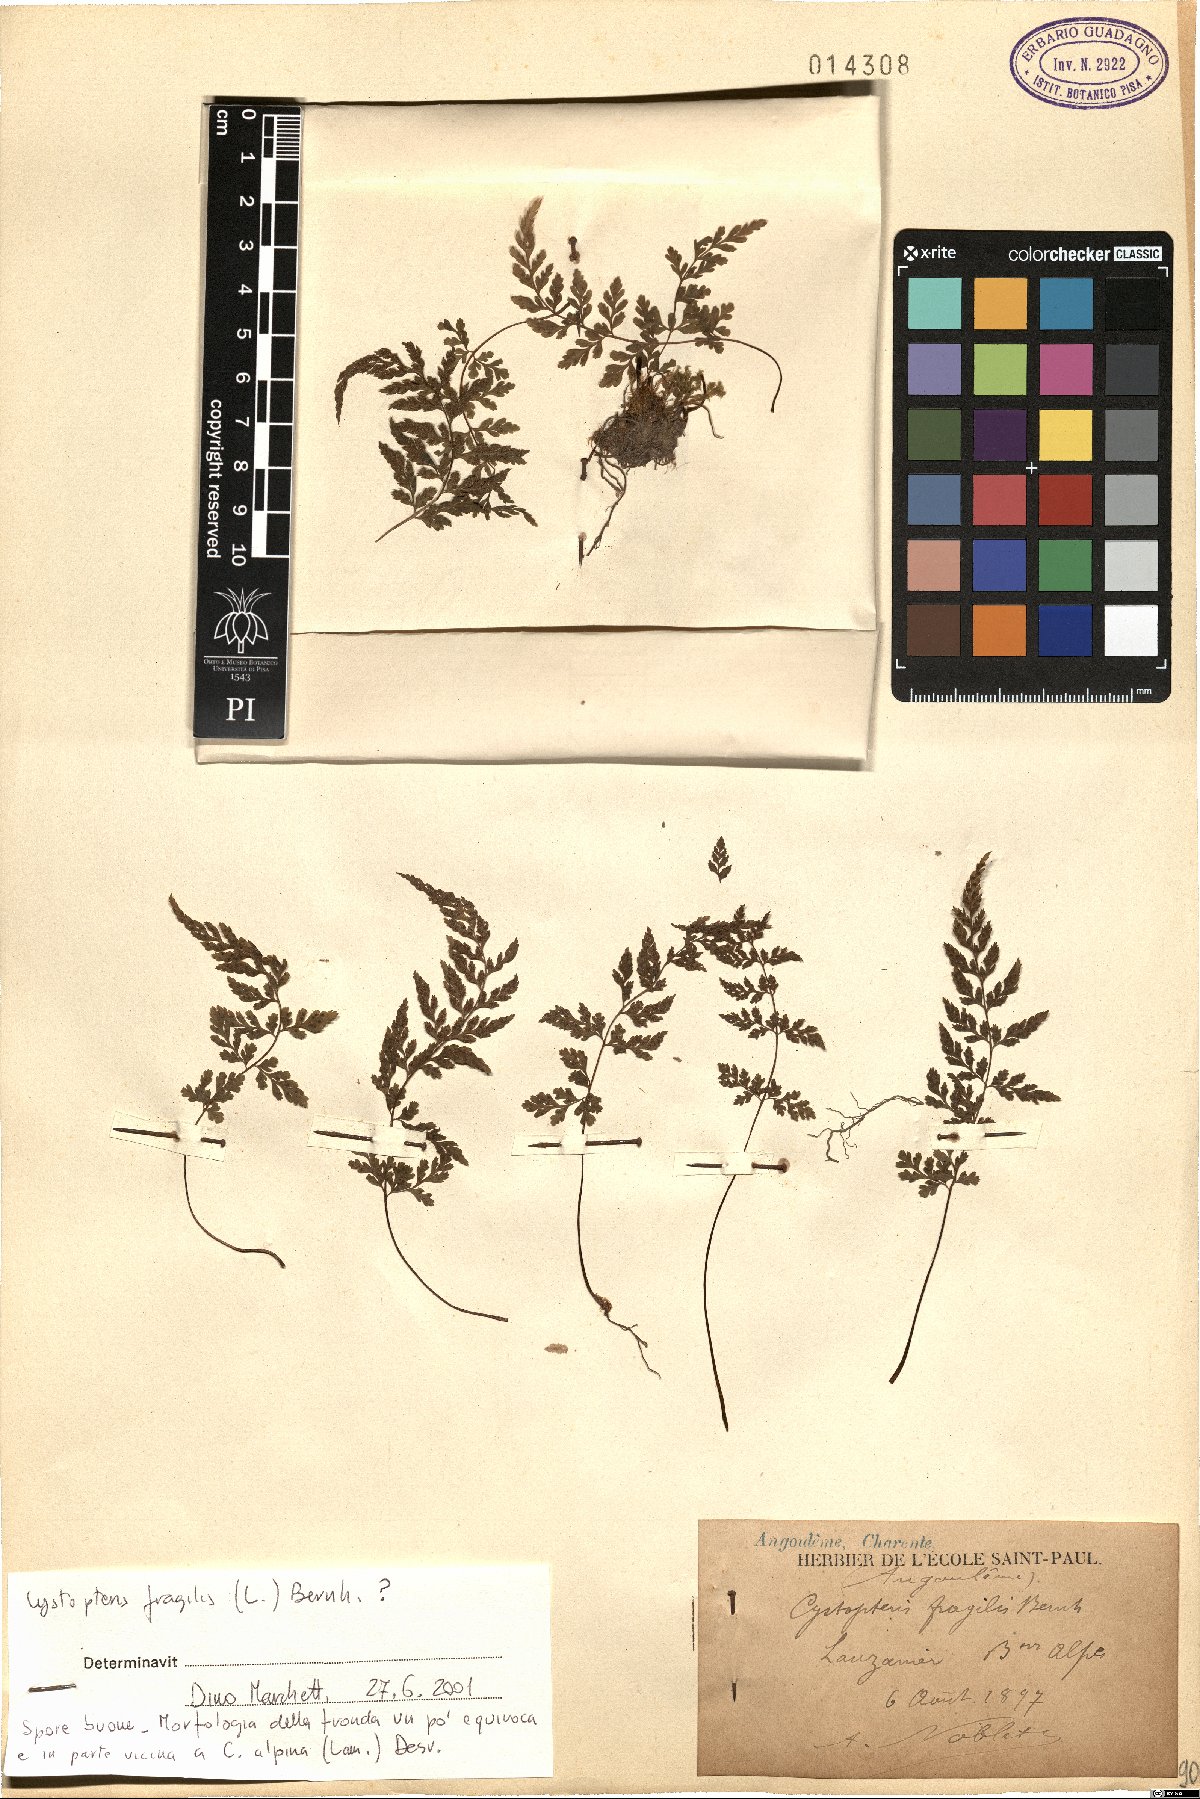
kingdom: Plantae
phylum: Tracheophyta
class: Polypodiopsida
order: Polypodiales
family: Cystopteridaceae
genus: Cystopteris
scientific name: Cystopteris fragilis
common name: Brittle bladder fern
